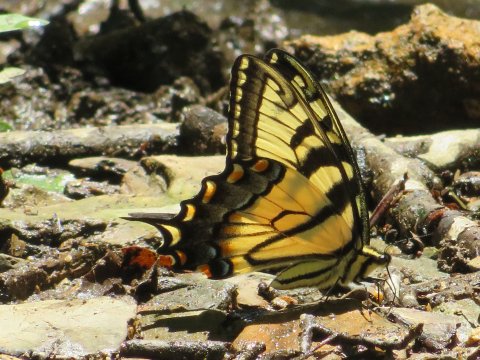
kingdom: Animalia
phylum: Arthropoda
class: Insecta
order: Lepidoptera
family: Papilionidae
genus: Pterourus
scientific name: Pterourus glaucus
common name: Eastern Tiger Swallowtail
